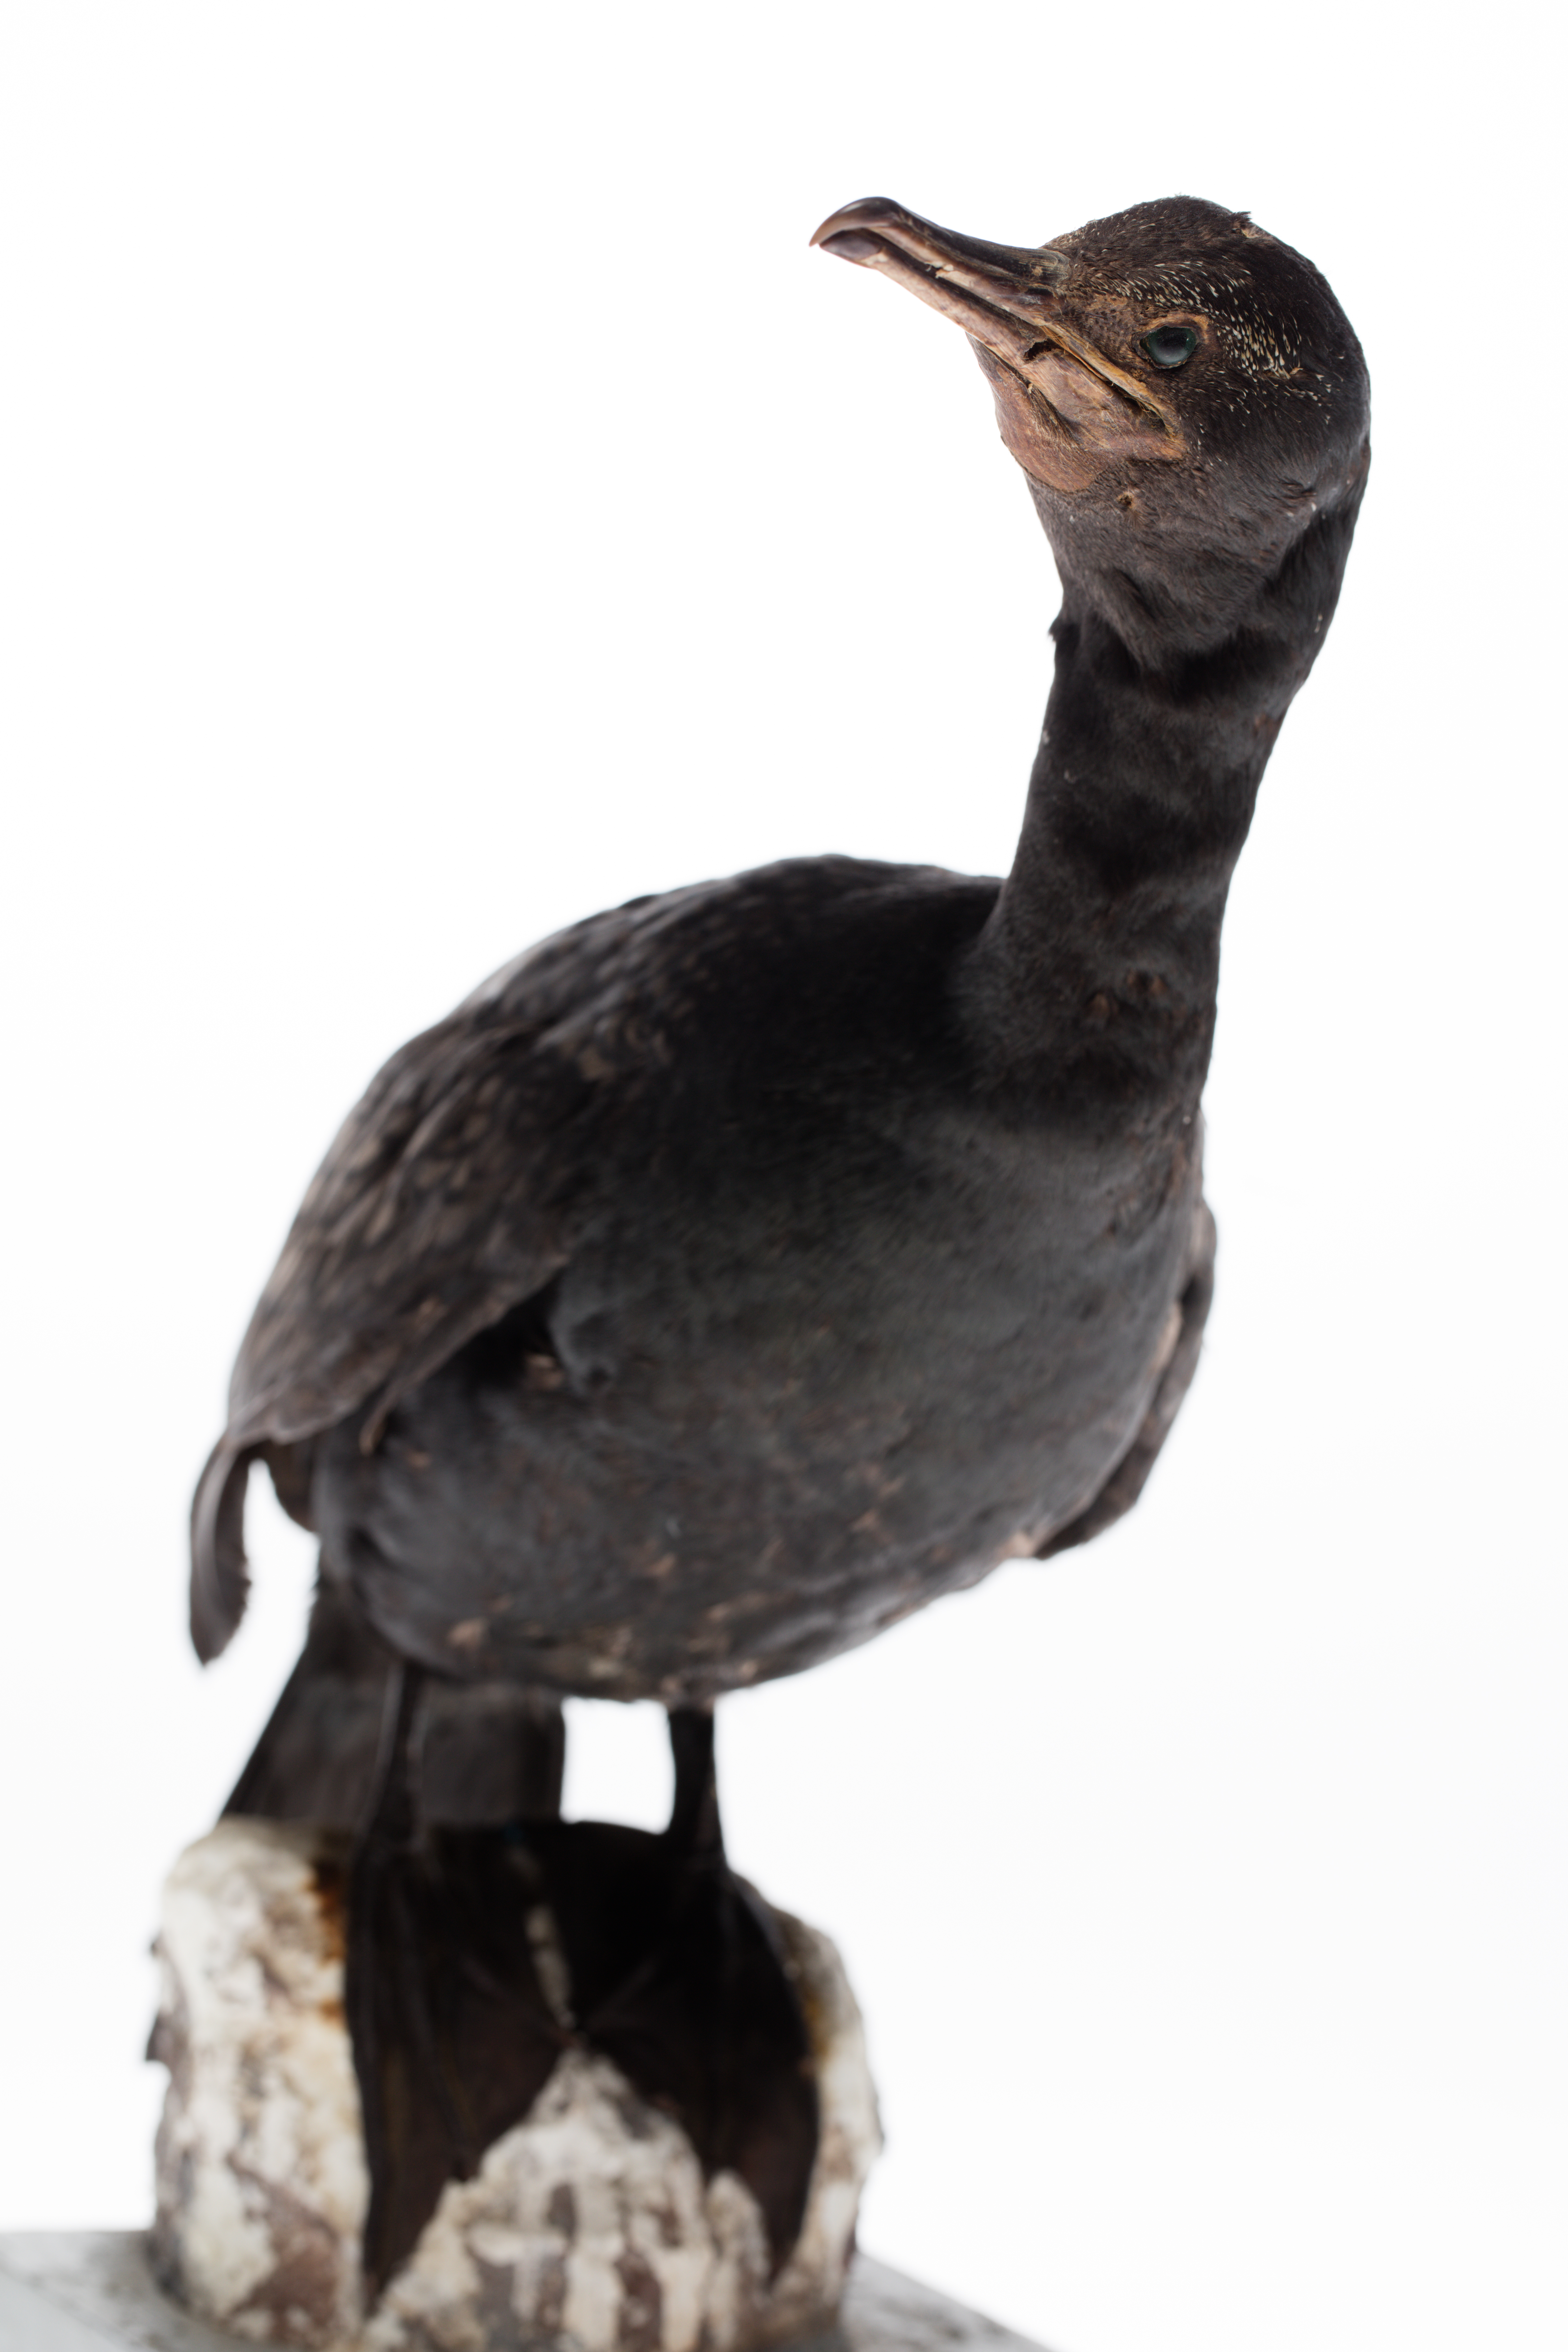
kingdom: Animalia
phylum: Chordata
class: Aves
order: Suliformes
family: Phalacrocoracidae
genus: Phalacrocorax
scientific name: Phalacrocorax sulcirostris
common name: Little black cormorant
